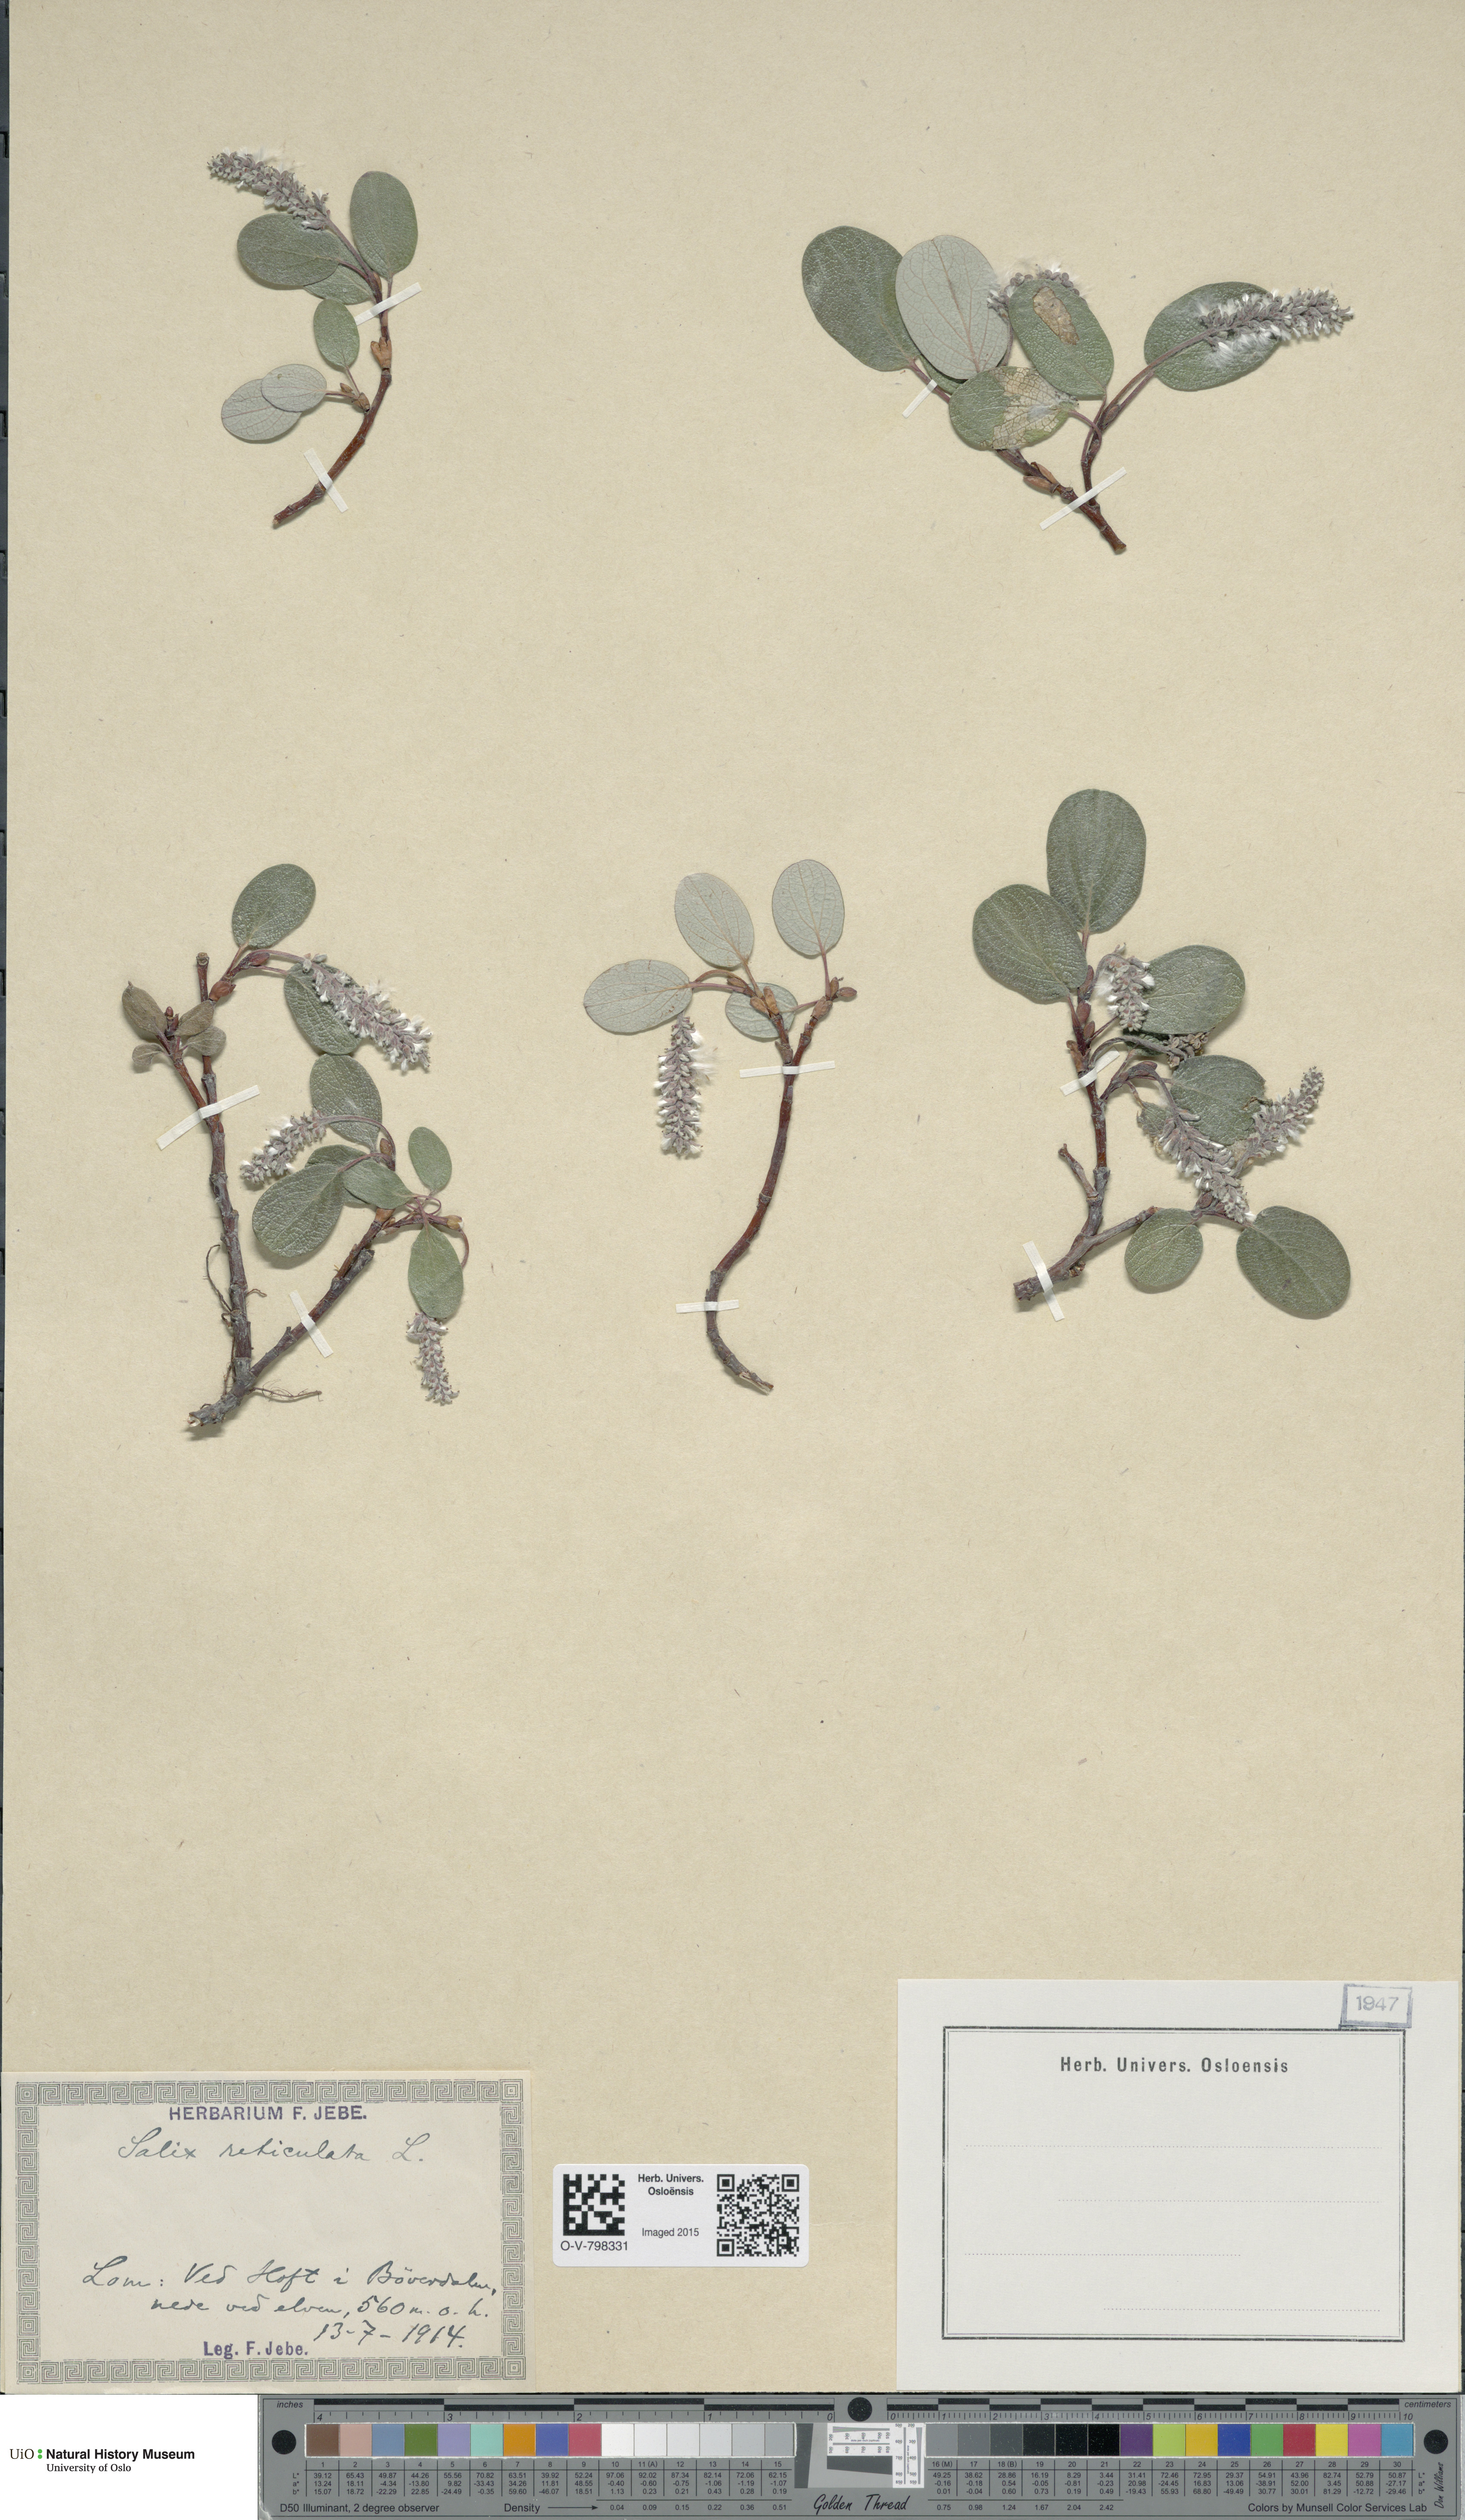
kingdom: Plantae
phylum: Tracheophyta
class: Magnoliopsida
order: Malpighiales
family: Salicaceae
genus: Salix
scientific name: Salix reticulata
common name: Net-leaved willow
